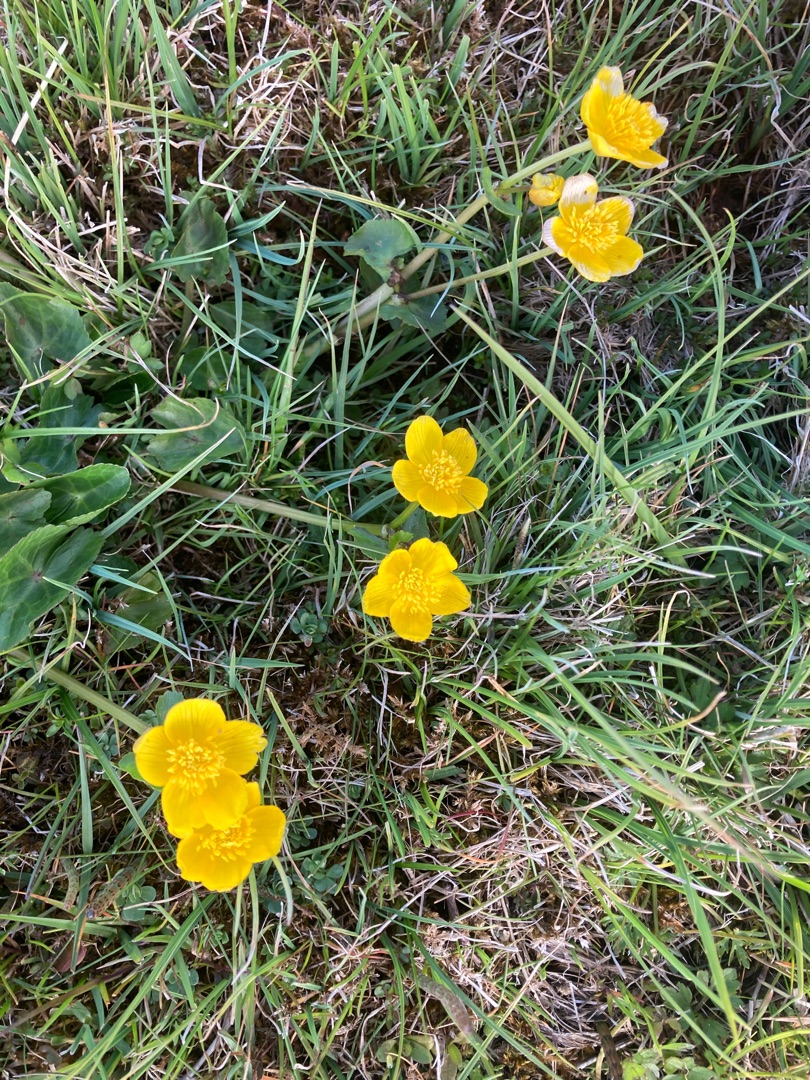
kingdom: Plantae
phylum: Tracheophyta
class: Magnoliopsida
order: Ranunculales
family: Ranunculaceae
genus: Caltha
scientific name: Caltha palustris
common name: Eng-kabbeleje
